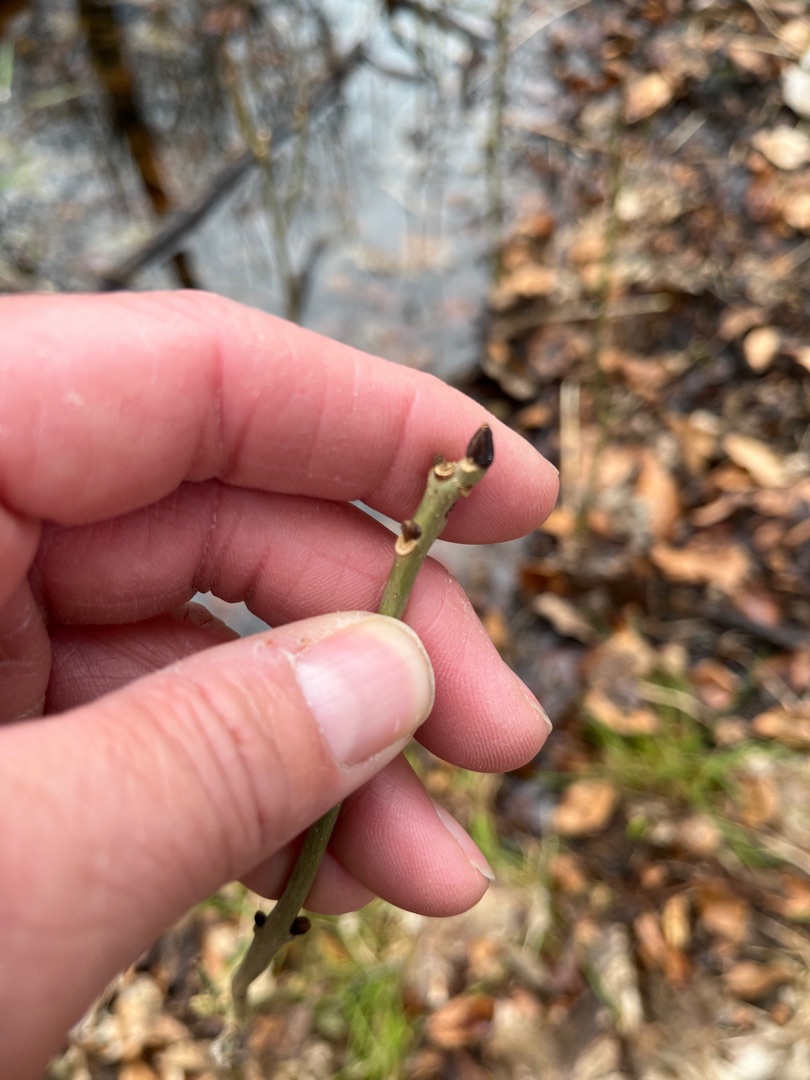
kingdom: Plantae
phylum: Tracheophyta
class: Magnoliopsida
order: Lamiales
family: Oleaceae
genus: Fraxinus
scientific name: Fraxinus excelsior
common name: Ask
